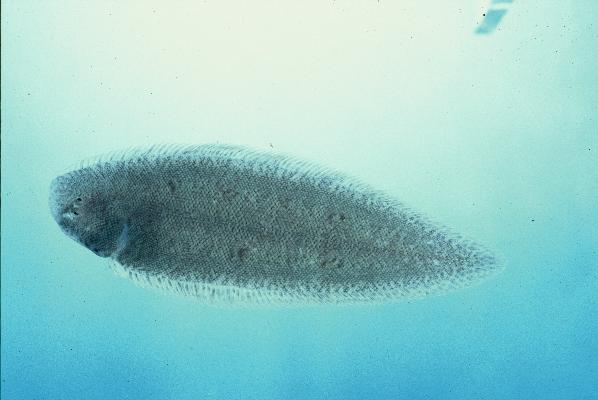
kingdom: Animalia
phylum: Chordata
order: Pleuronectiformes
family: Cynoglossidae
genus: Cynoglossus
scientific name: Cynoglossus durbanensis
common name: Durban tonguesole
